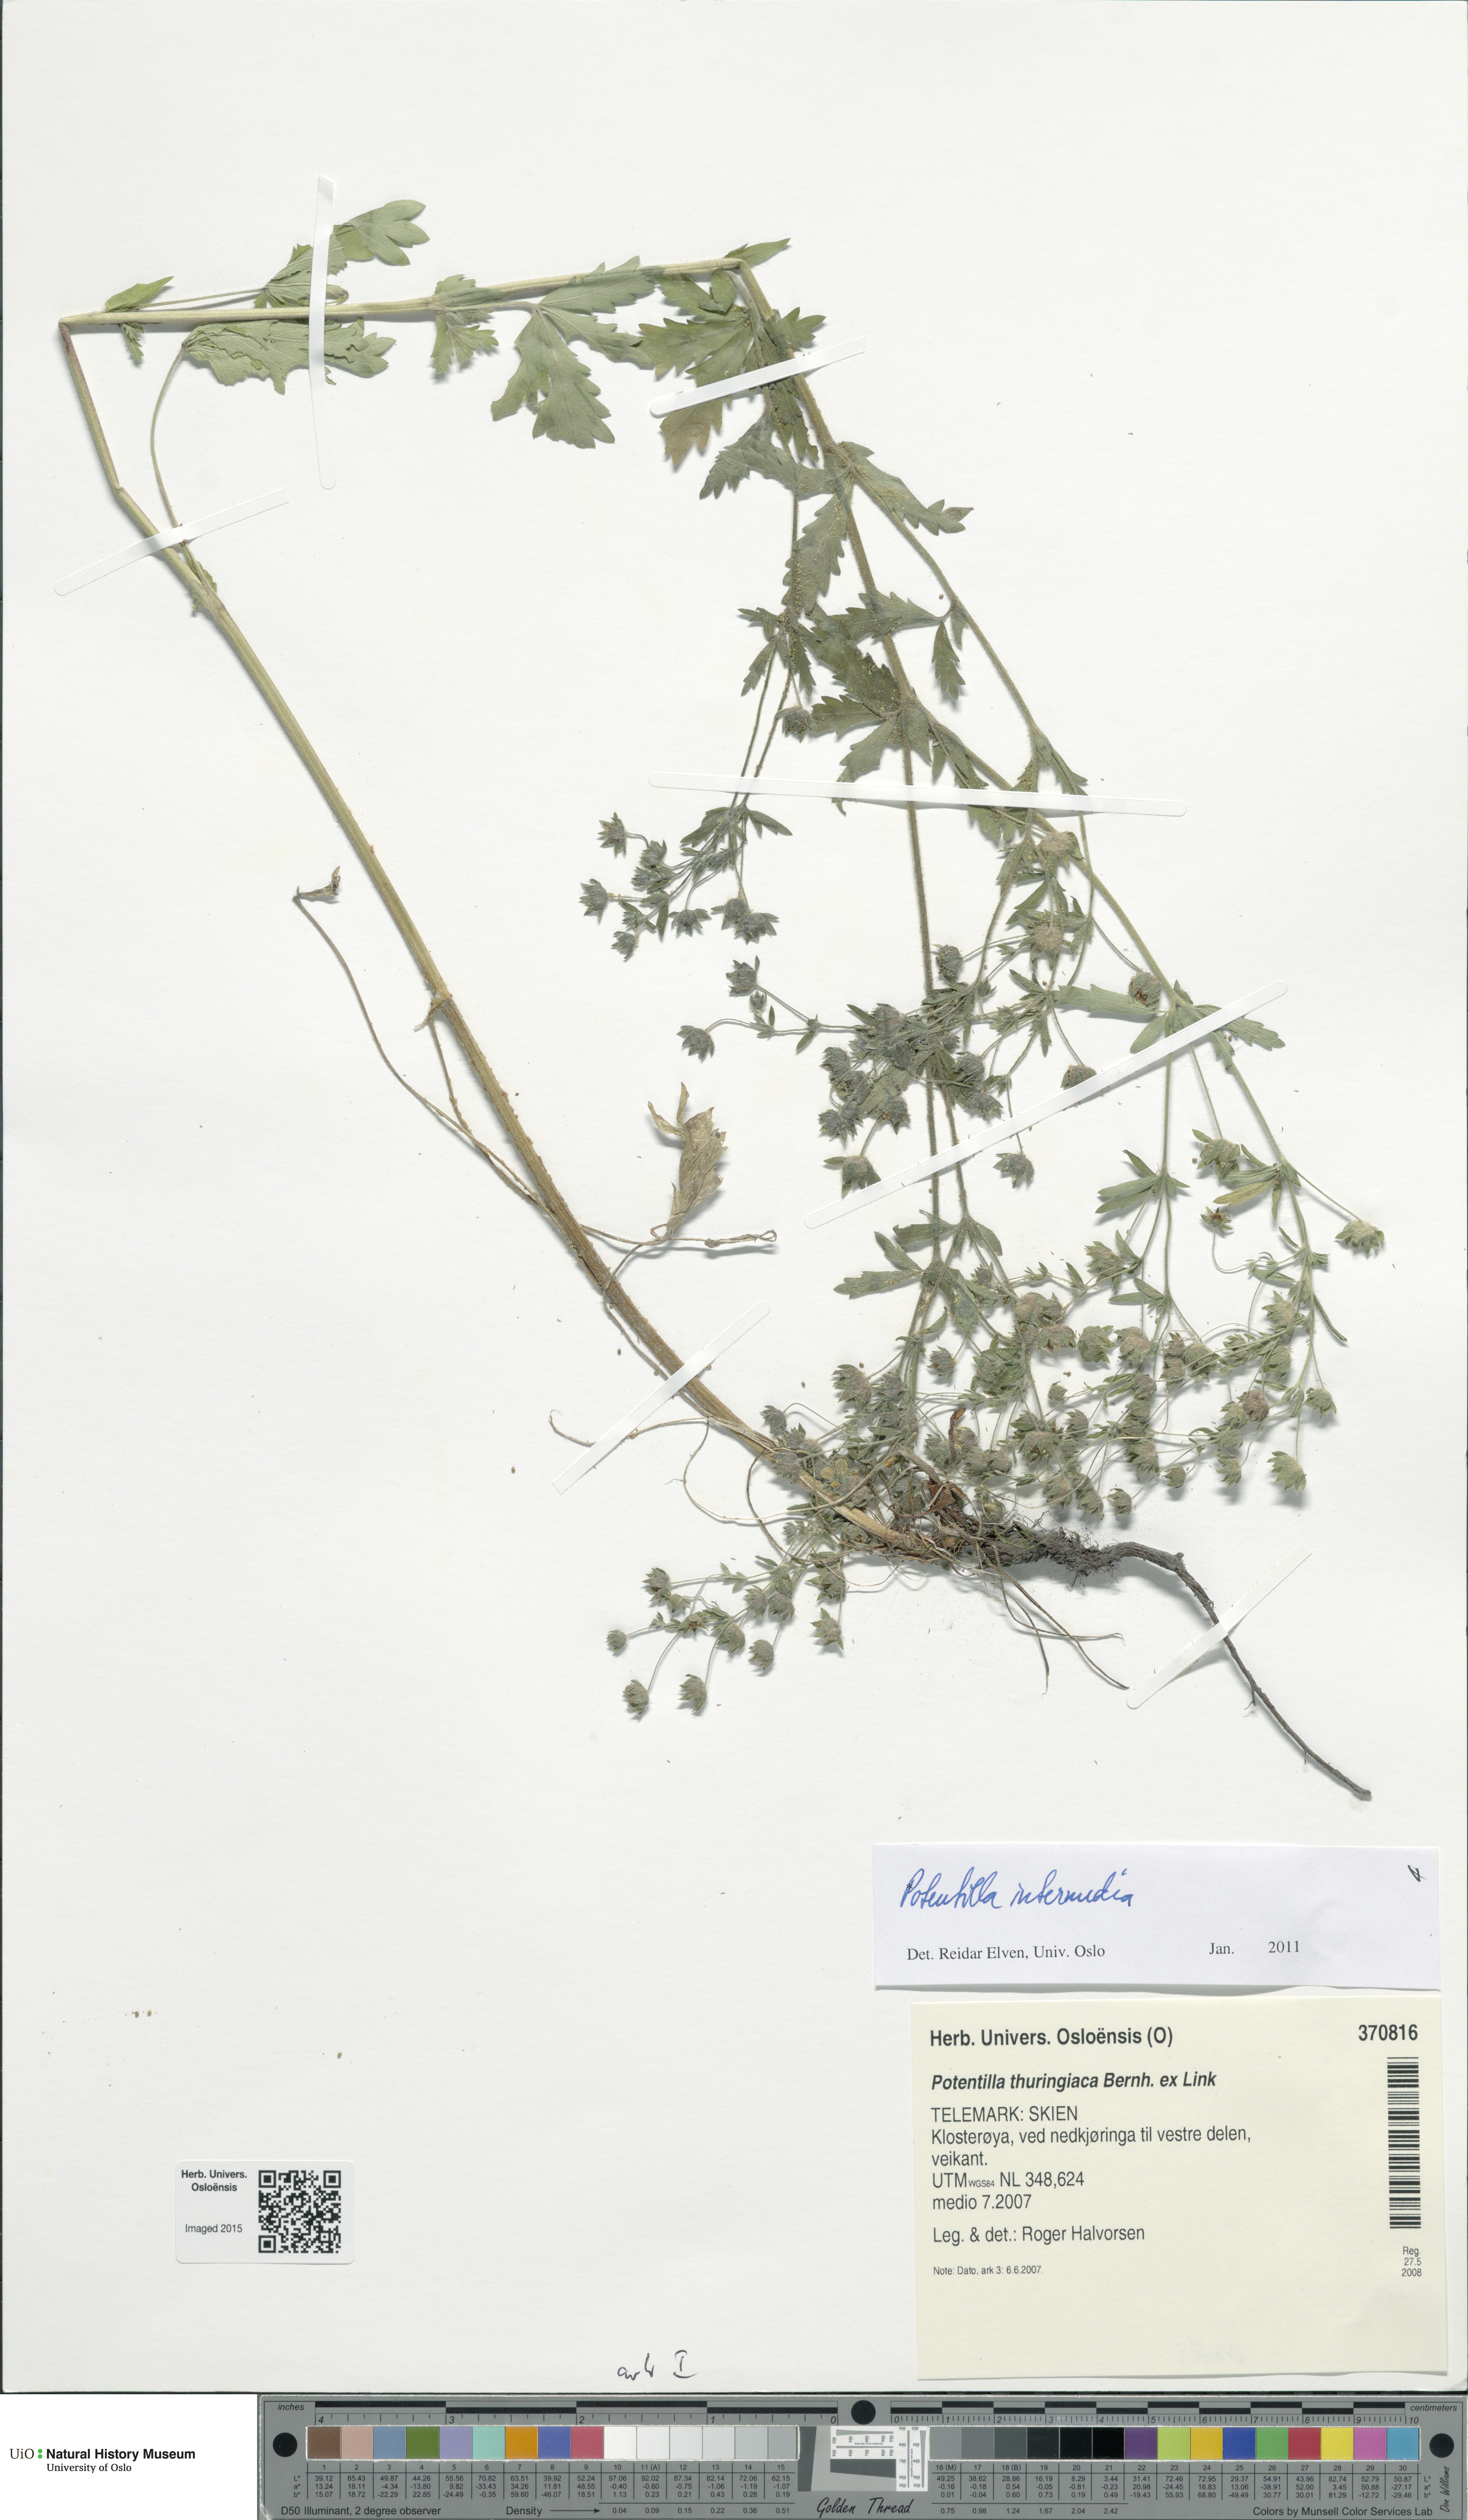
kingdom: Plantae
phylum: Tracheophyta
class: Magnoliopsida
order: Rosales
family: Rosaceae
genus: Potentilla
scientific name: Potentilla intermedia
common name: Downy cinquefoil
